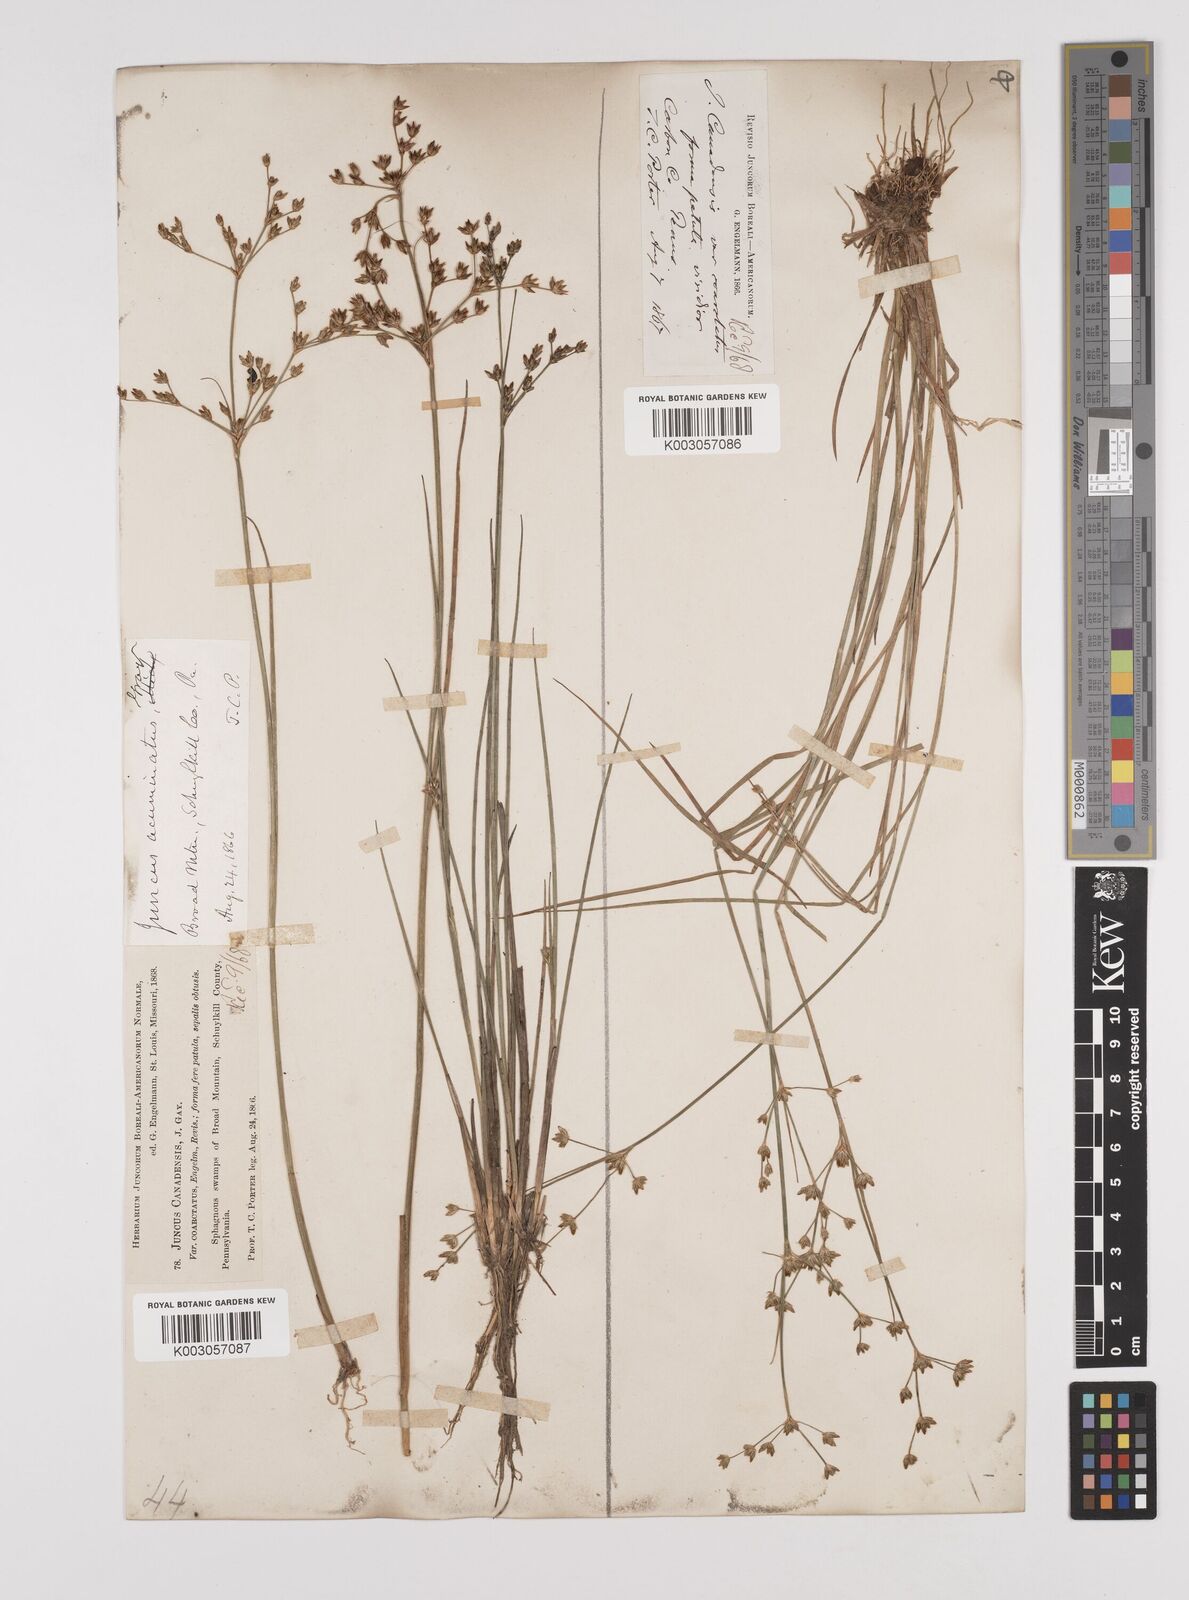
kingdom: Plantae
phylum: Tracheophyta
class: Liliopsida
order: Poales
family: Juncaceae
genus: Juncus
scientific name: Juncus canadensis
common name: Canada rush
